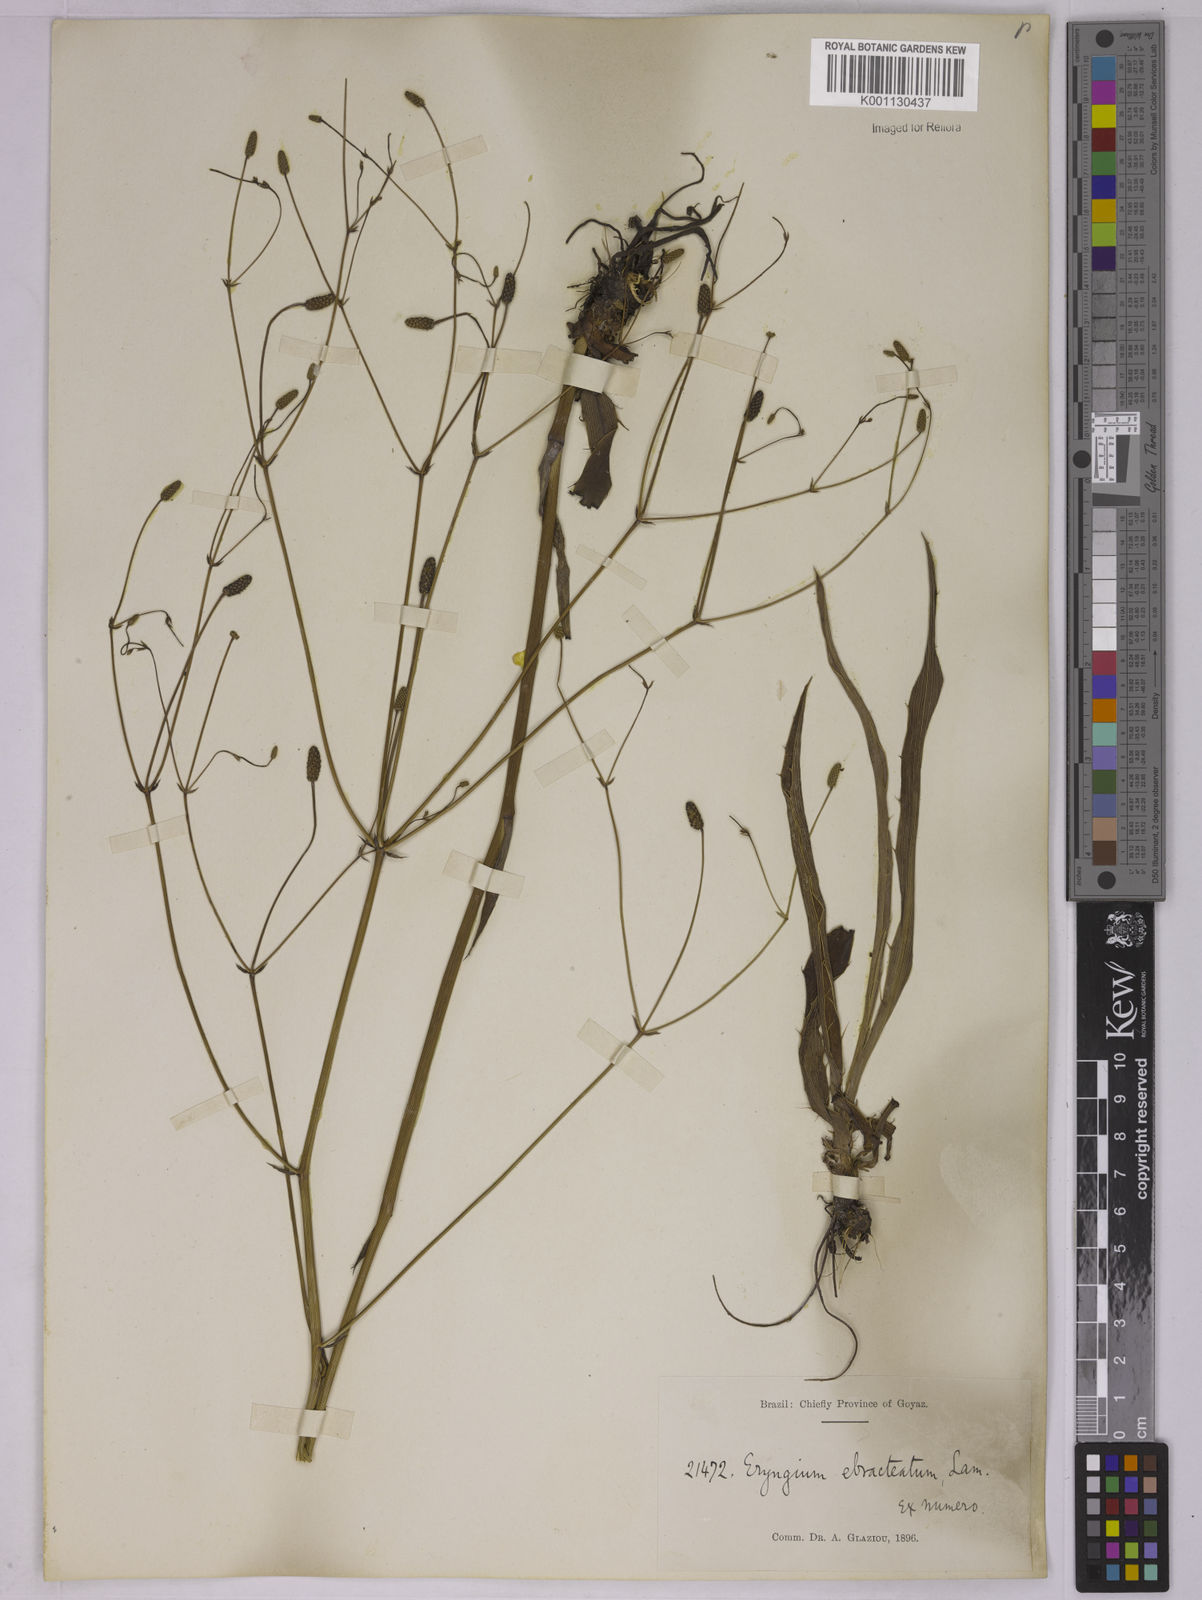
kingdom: Plantae
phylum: Tracheophyta
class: Magnoliopsida
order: Apiales
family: Apiaceae
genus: Eryngium
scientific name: Eryngium ebracteatum
